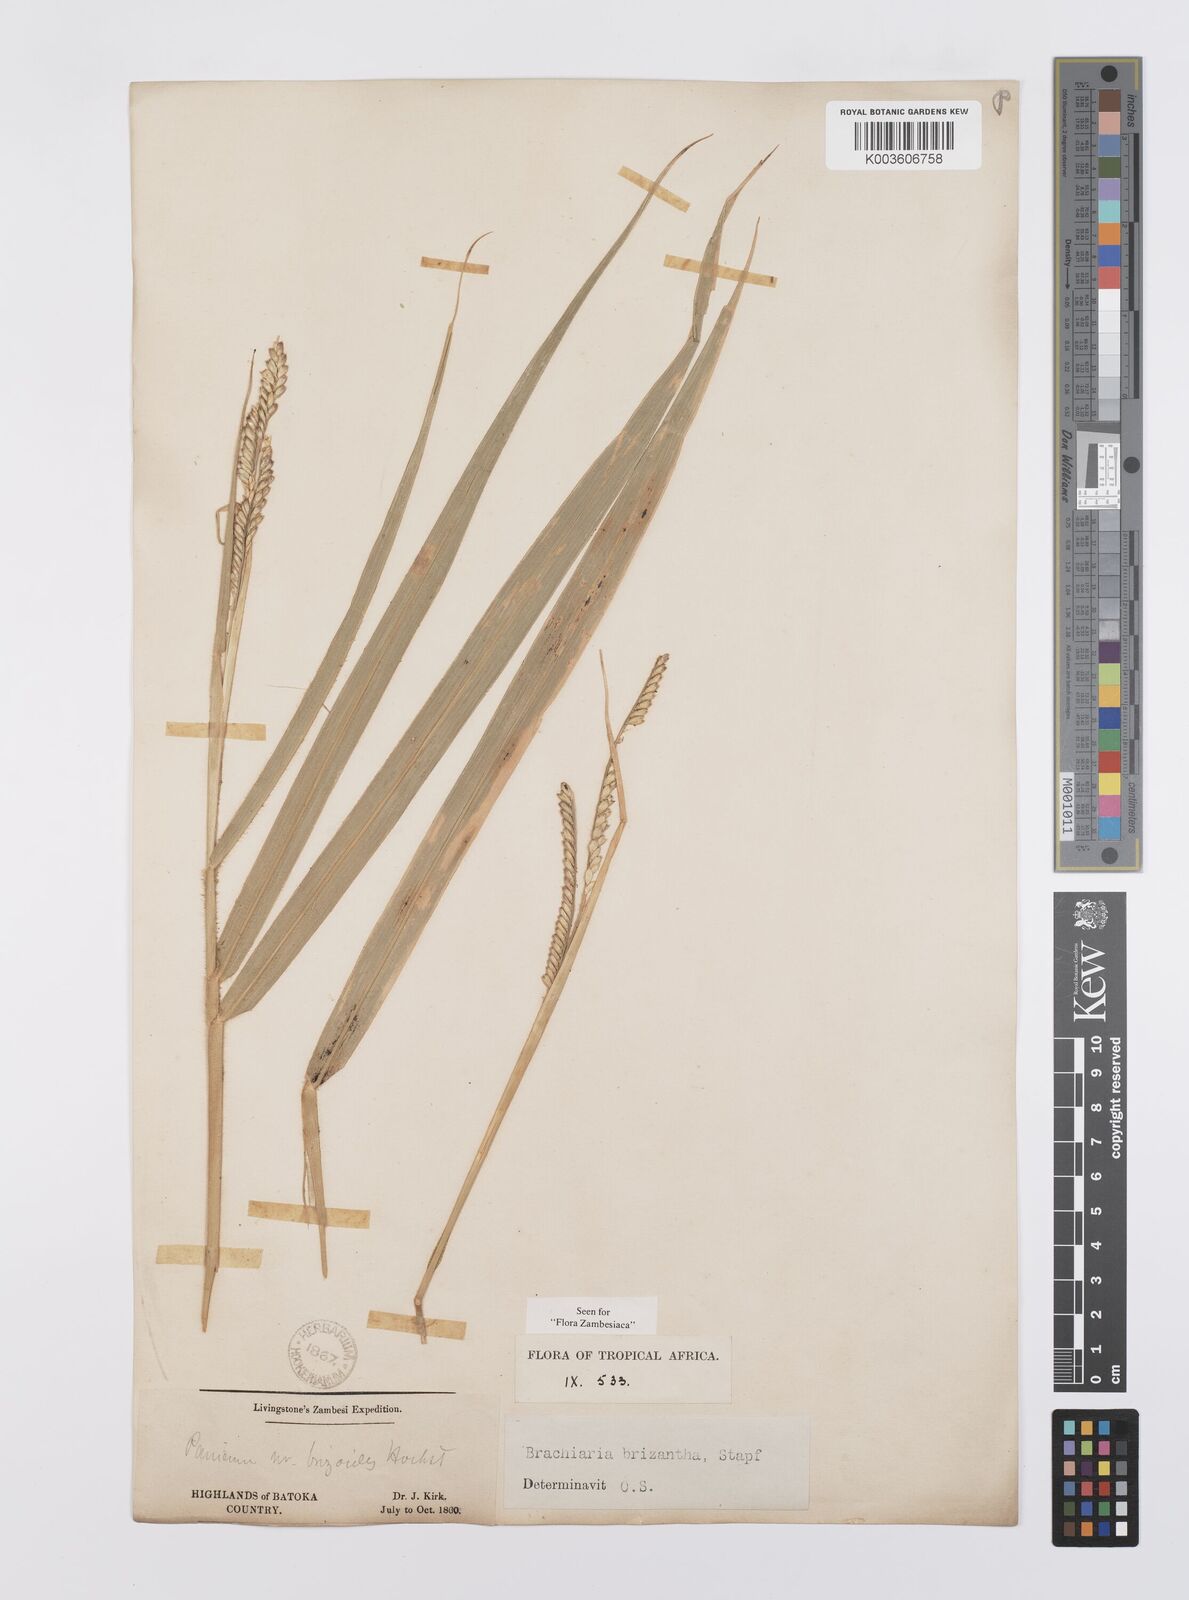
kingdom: Plantae
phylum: Tracheophyta
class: Liliopsida
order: Poales
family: Poaceae
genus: Urochloa
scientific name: Urochloa brizantha
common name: Palisade signalgrass
